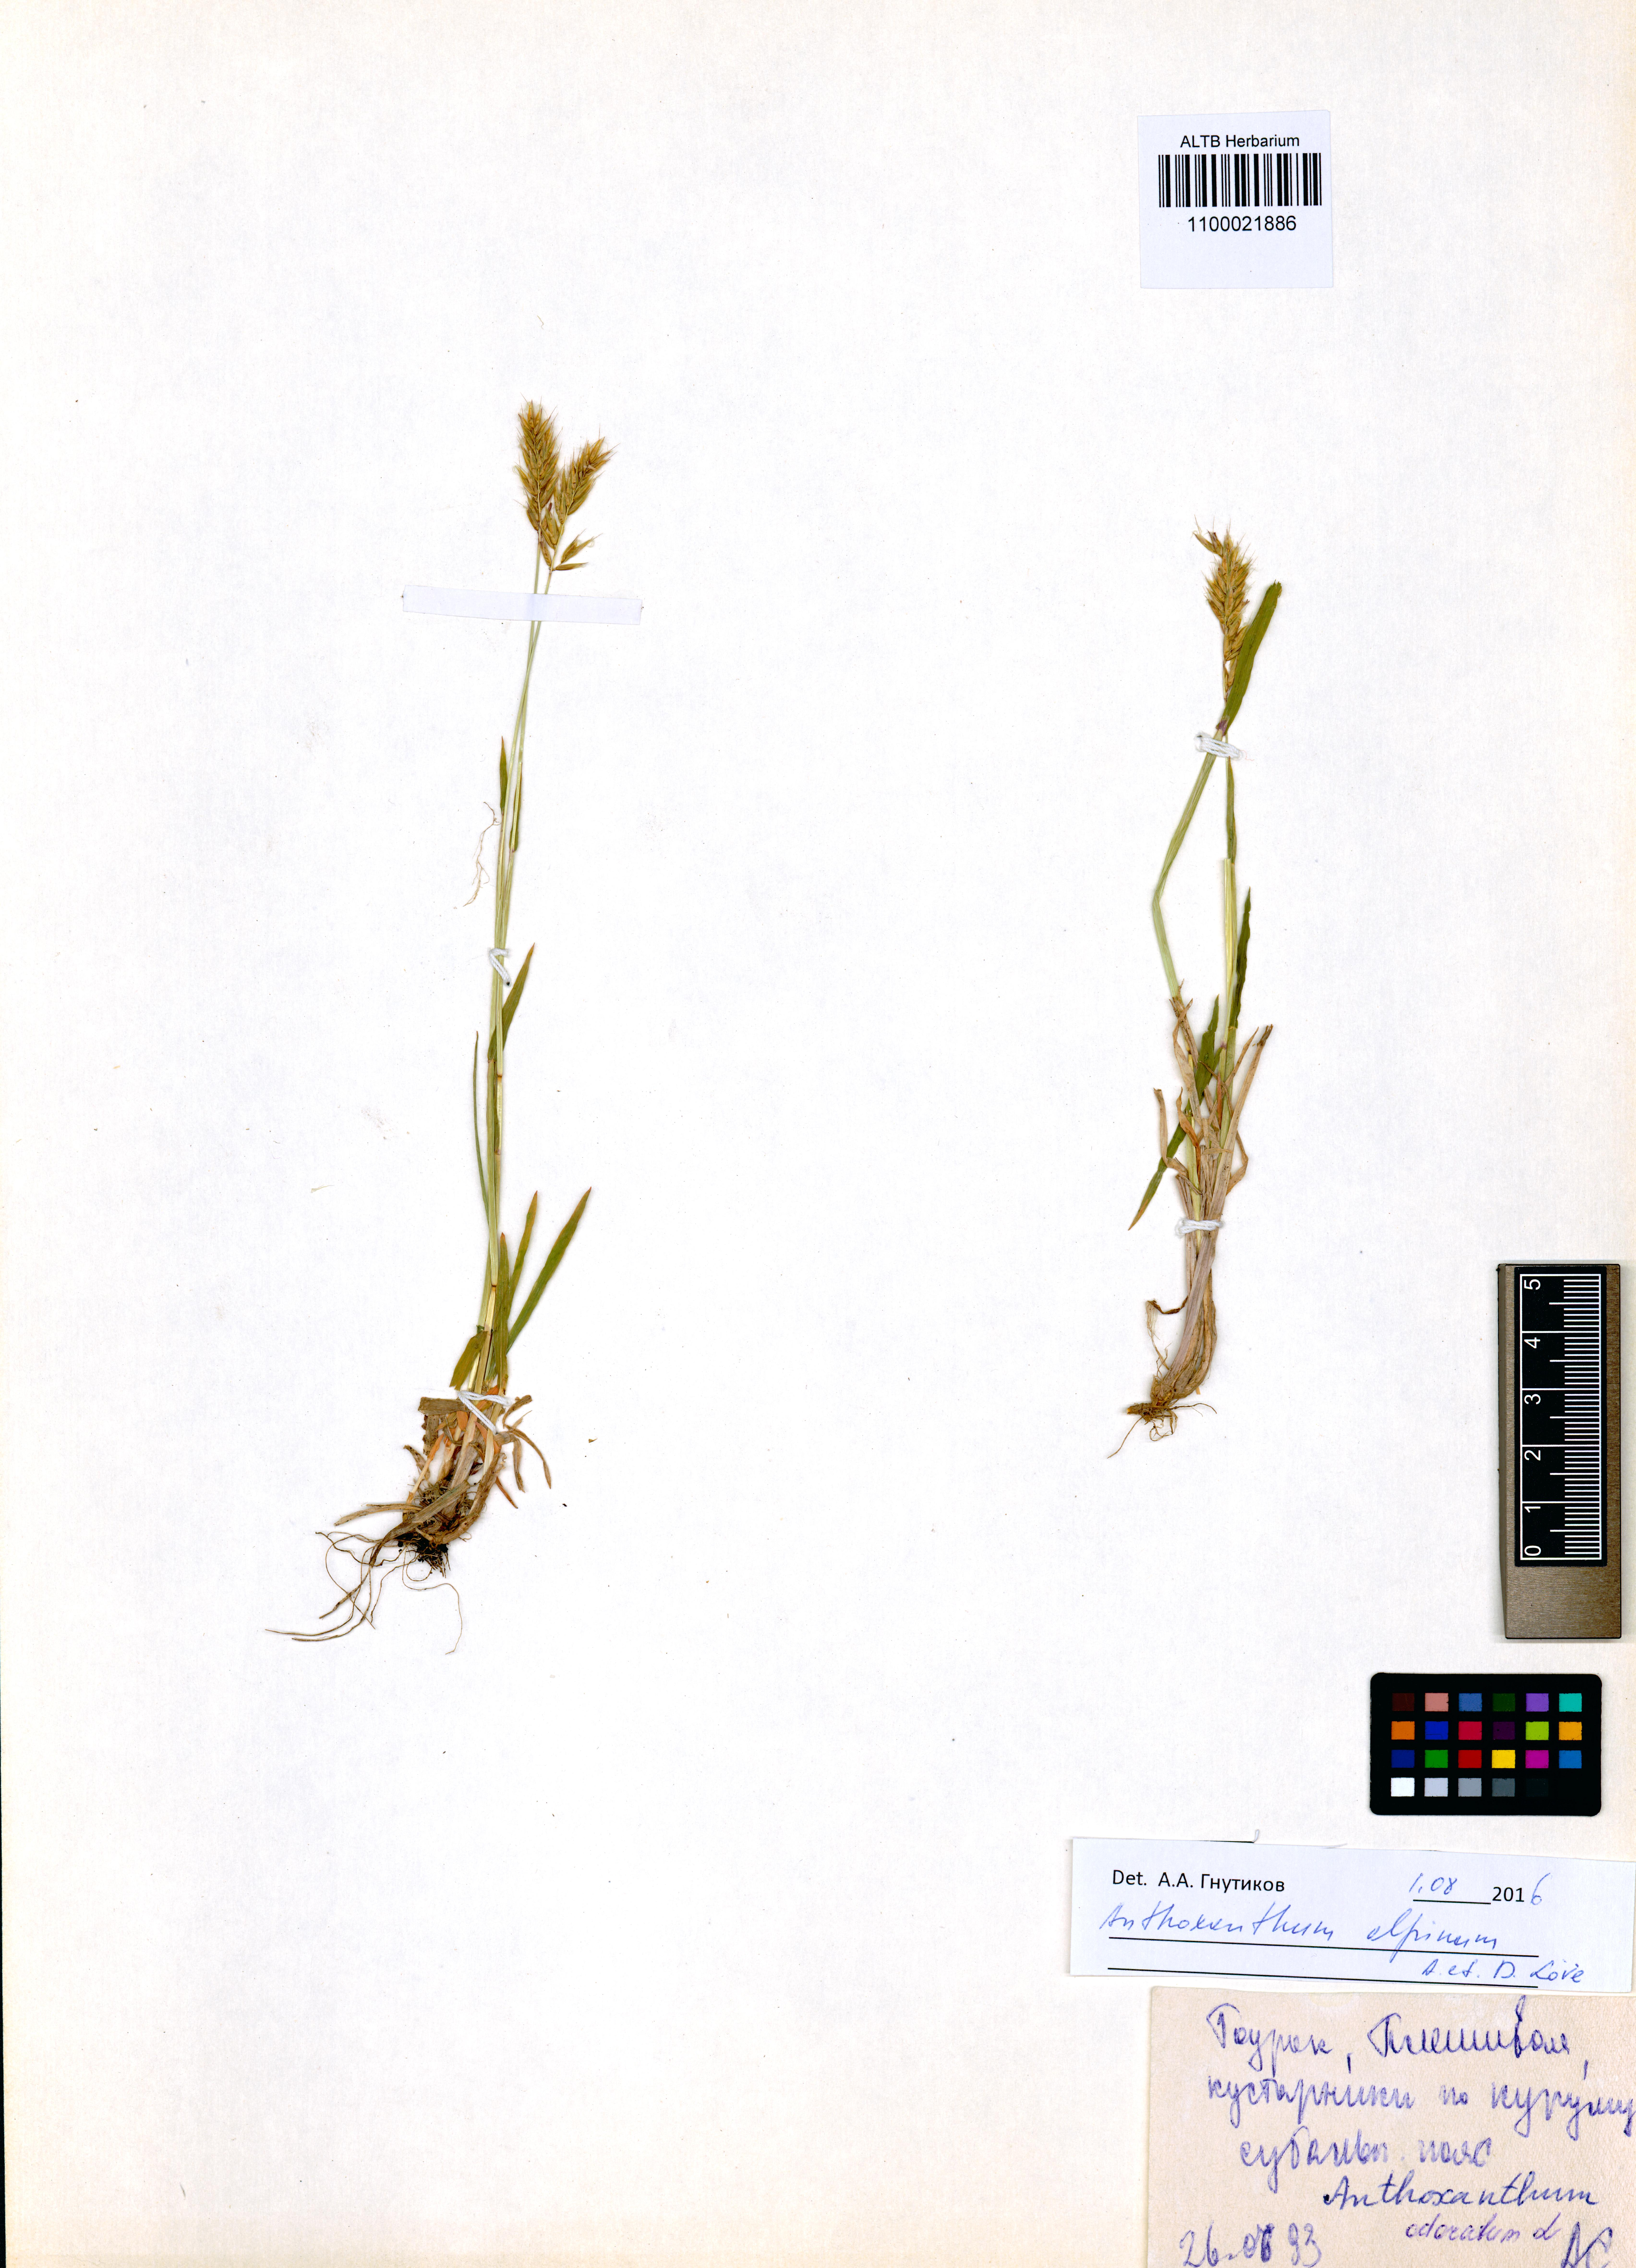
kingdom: Plantae
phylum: Tracheophyta
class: Liliopsida
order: Poales
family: Poaceae
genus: Anthoxanthum
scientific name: Anthoxanthum nipponicum
